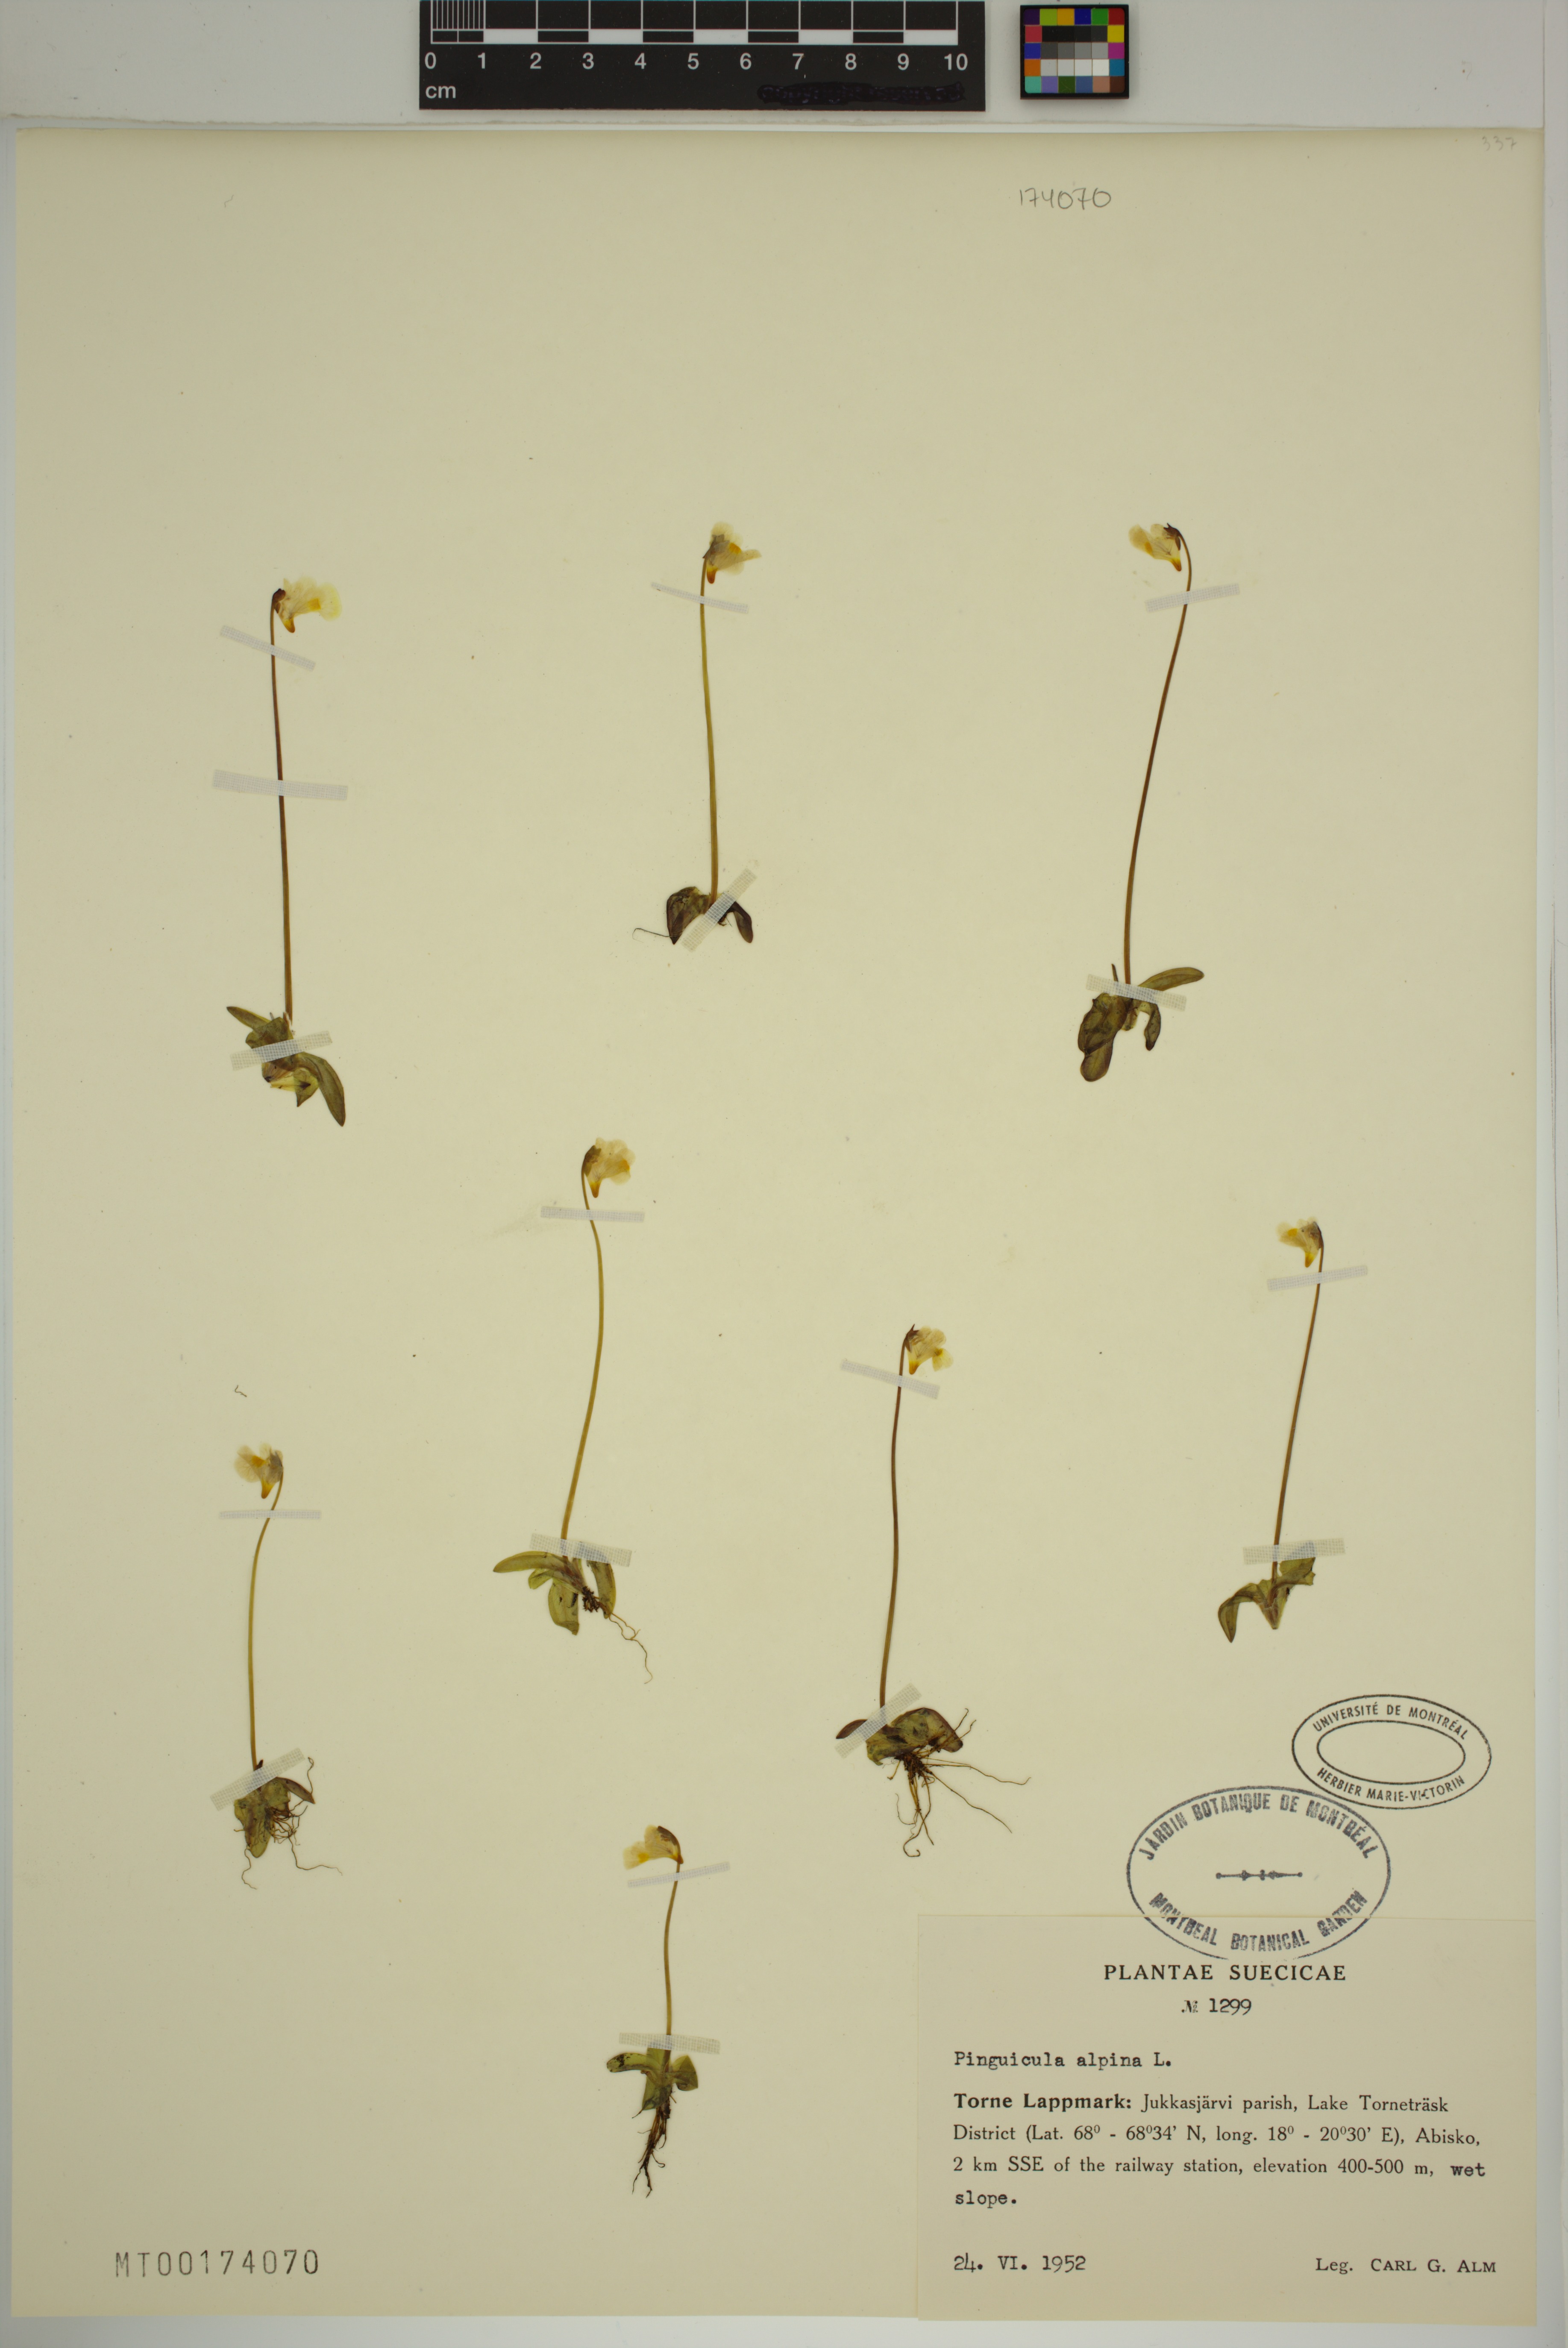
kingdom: Plantae
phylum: Tracheophyta
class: Magnoliopsida
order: Lamiales
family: Lentibulariaceae
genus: Pinguicula
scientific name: Pinguicula alpina
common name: Alpine butterwort
